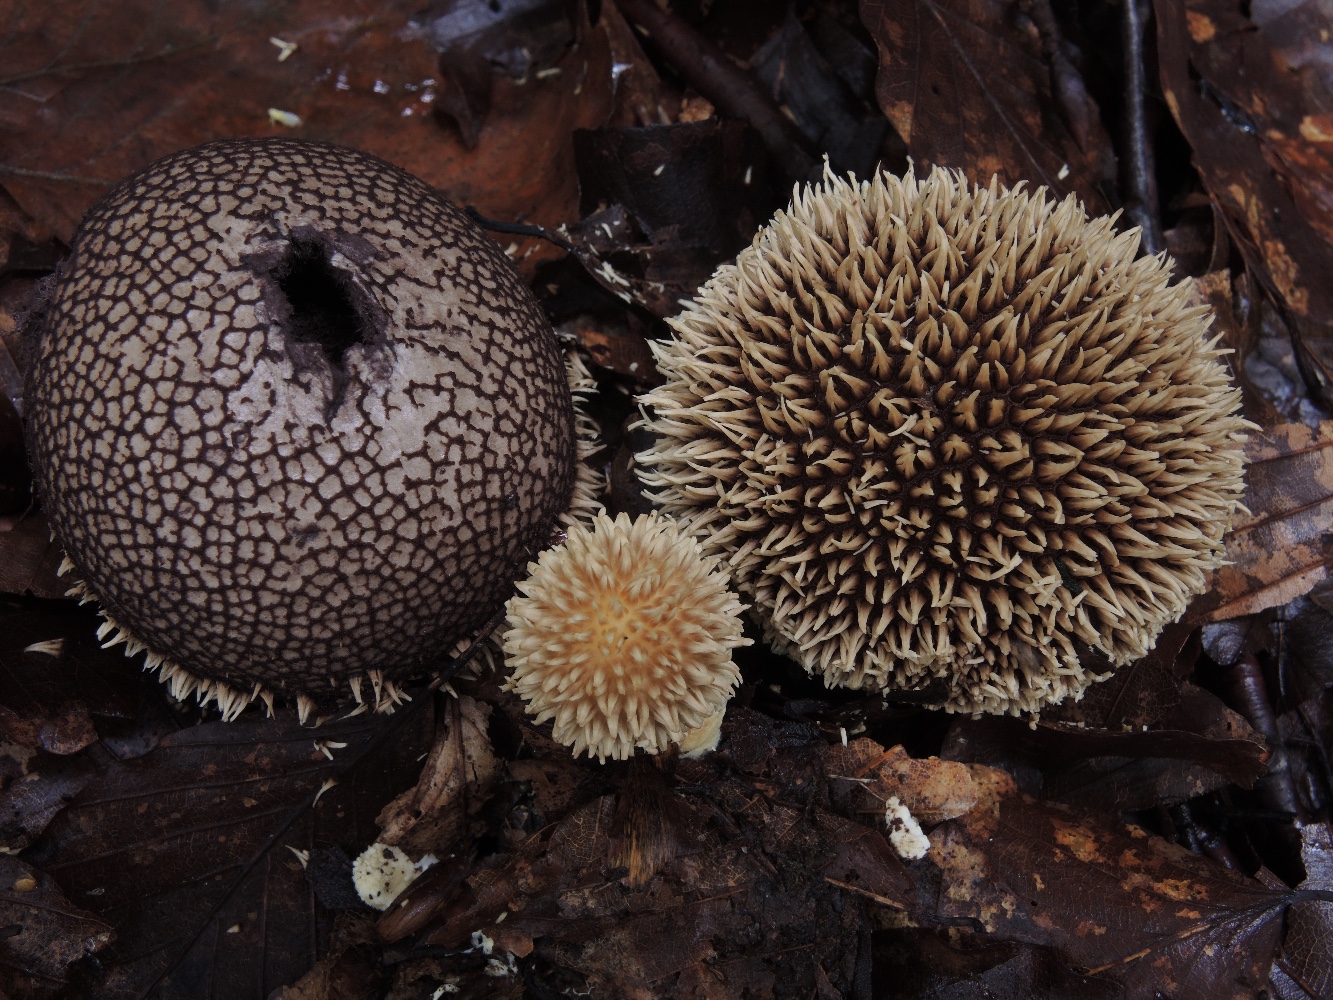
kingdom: Fungi
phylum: Basidiomycota
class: Agaricomycetes
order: Agaricales
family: Lycoperdaceae
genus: Lycoperdon
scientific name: Lycoperdon echinatum
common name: pindsvine-støvbold
